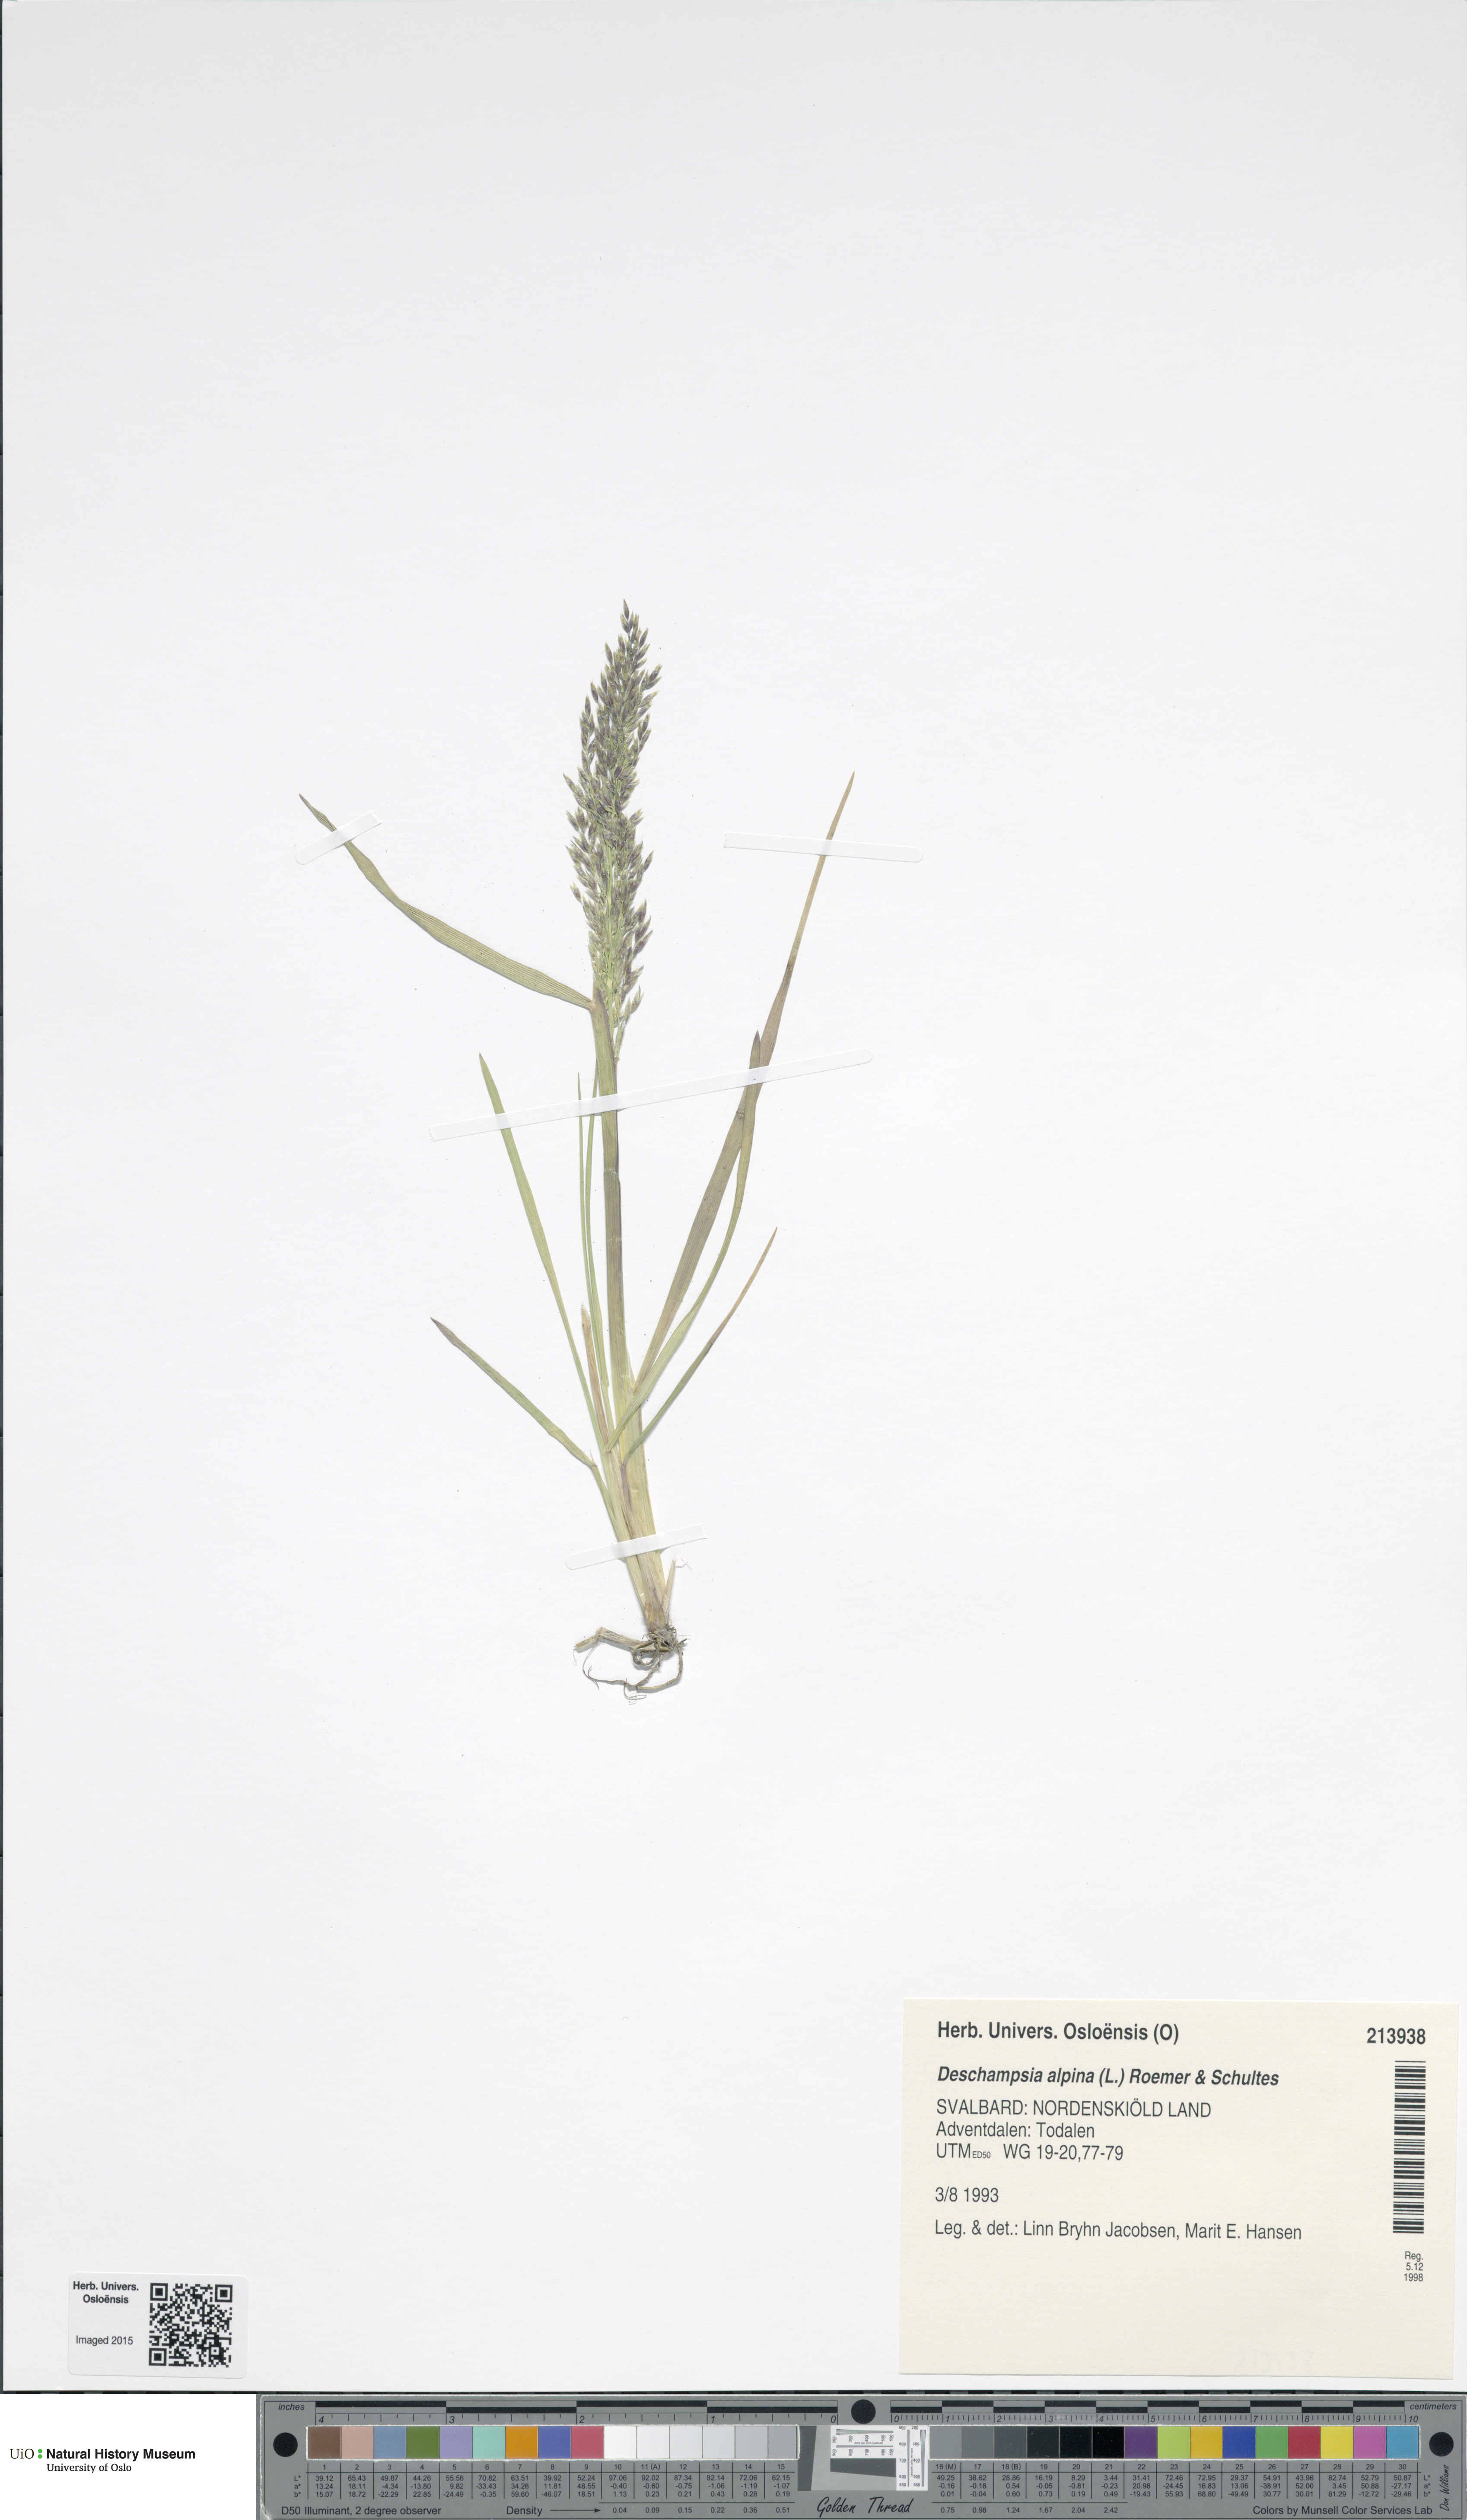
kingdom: Plantae
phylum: Tracheophyta
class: Liliopsida
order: Poales
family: Poaceae
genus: Deschampsia
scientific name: Deschampsia cespitosa
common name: Tufted hair-grass
